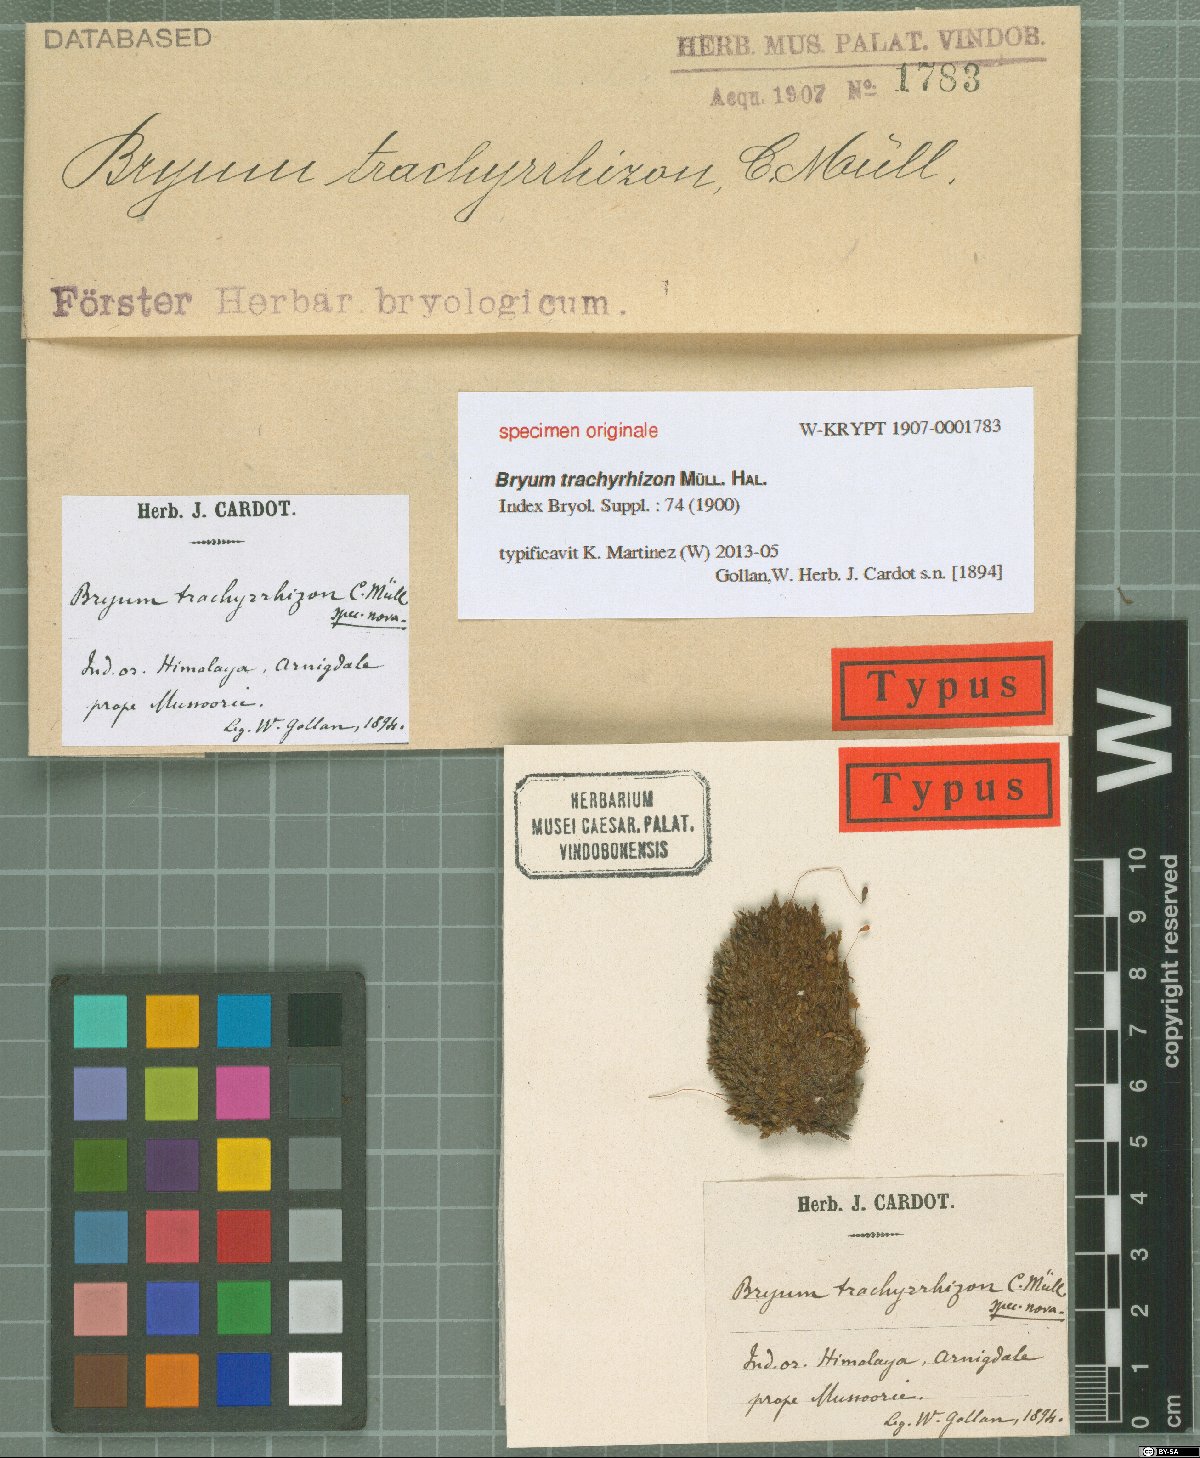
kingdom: Plantae
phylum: Bryophyta
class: Bryopsida
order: Bryales
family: Bryaceae
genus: Bryum
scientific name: Bryum
